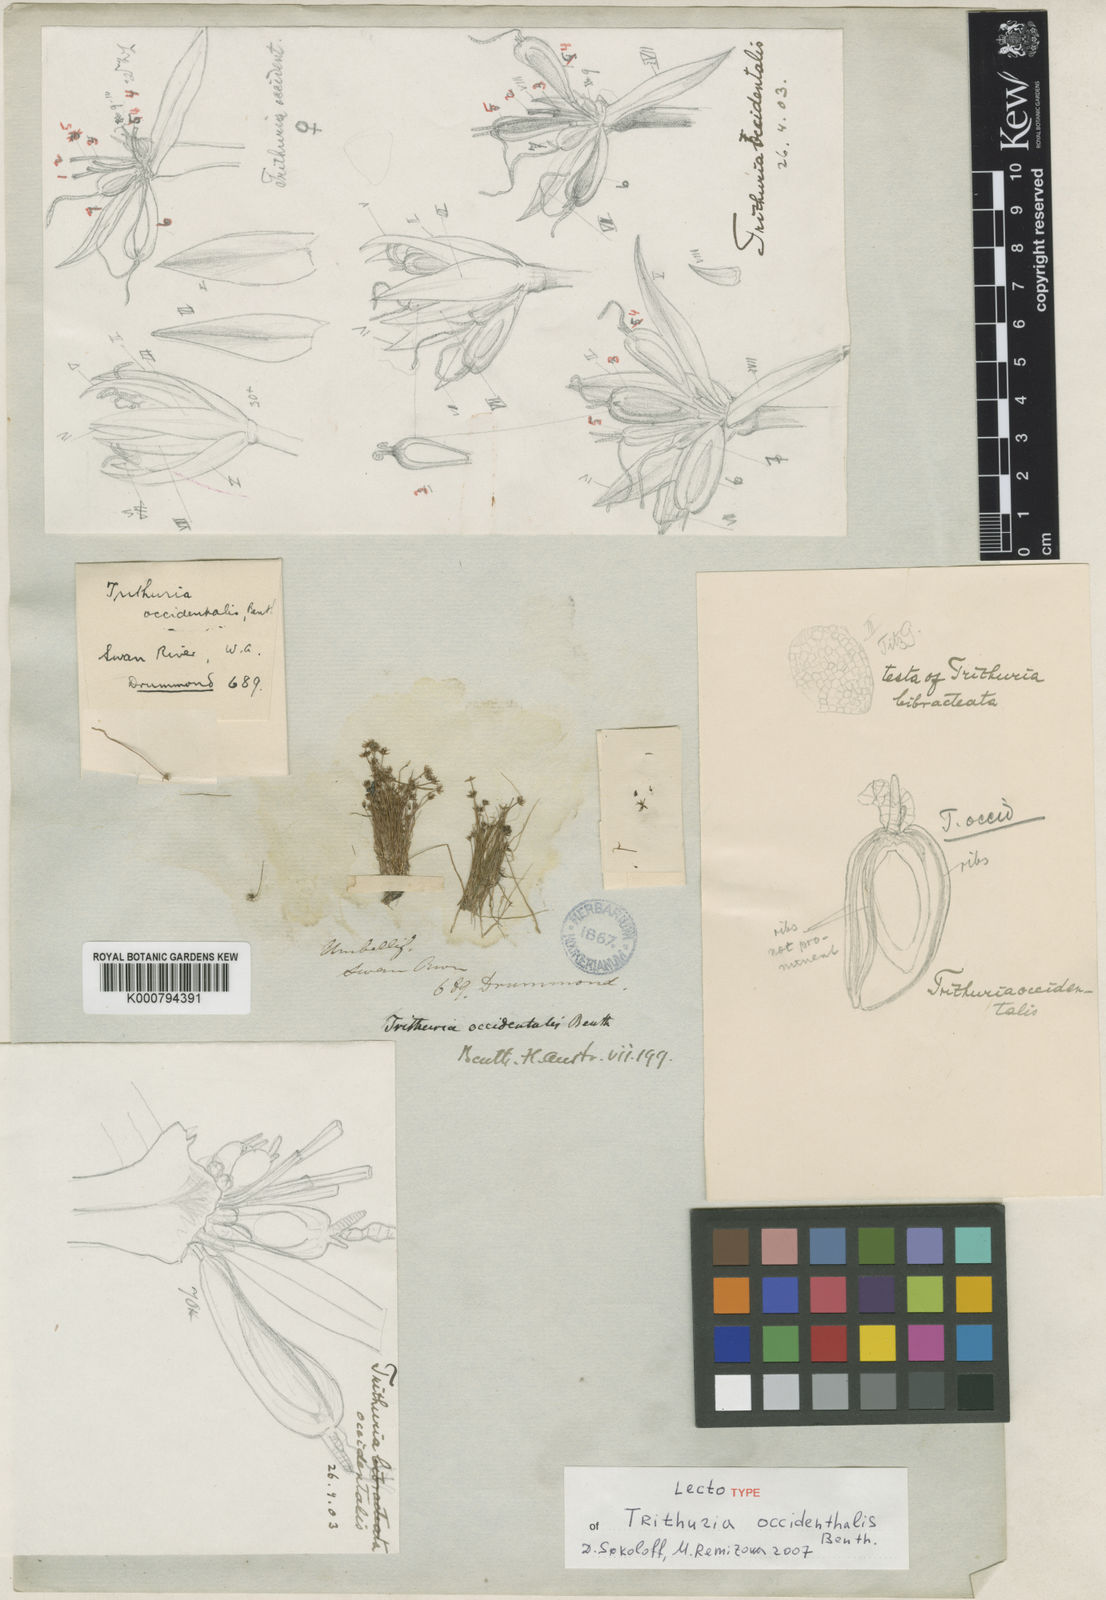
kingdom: Plantae
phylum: Tracheophyta
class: Magnoliopsida
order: Nymphaeales
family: Hydatellaceae
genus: Trithuria
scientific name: Trithuria occidentalis
